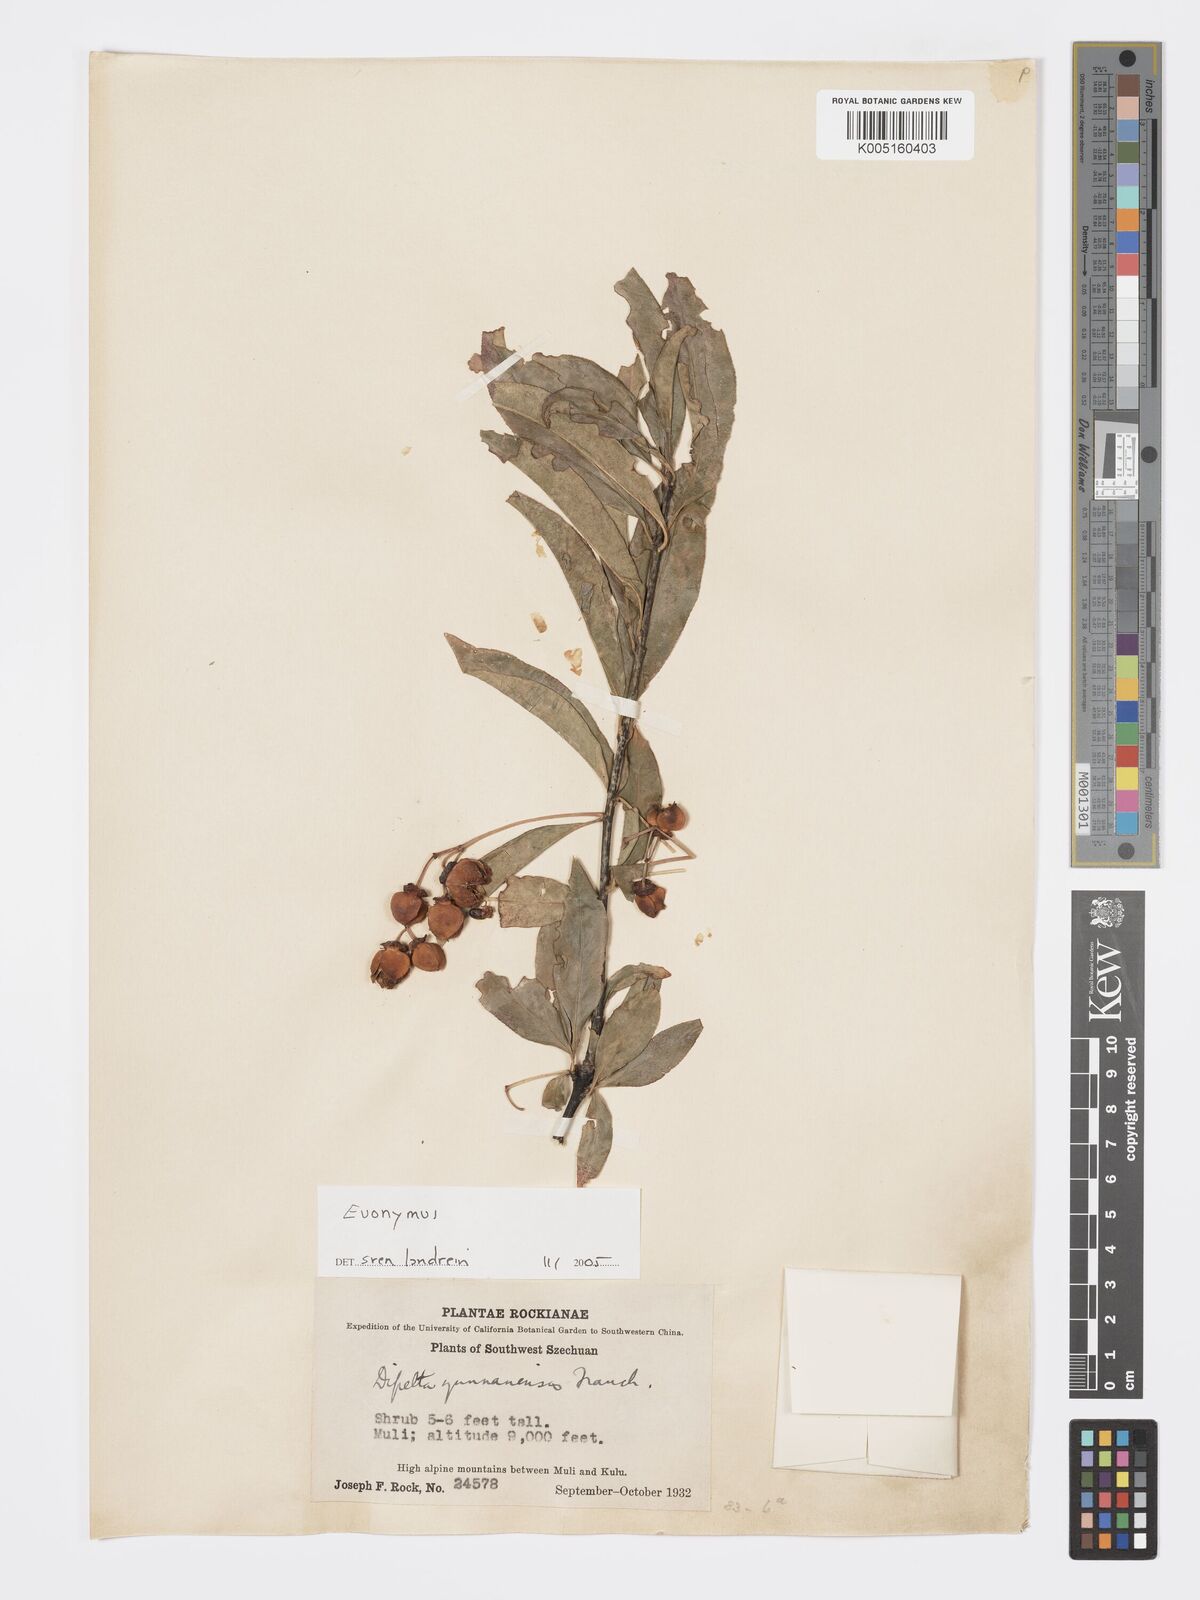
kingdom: Plantae
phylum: Tracheophyta
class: Magnoliopsida
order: Celastrales
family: Celastraceae
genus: Euonymus
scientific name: Euonymus
